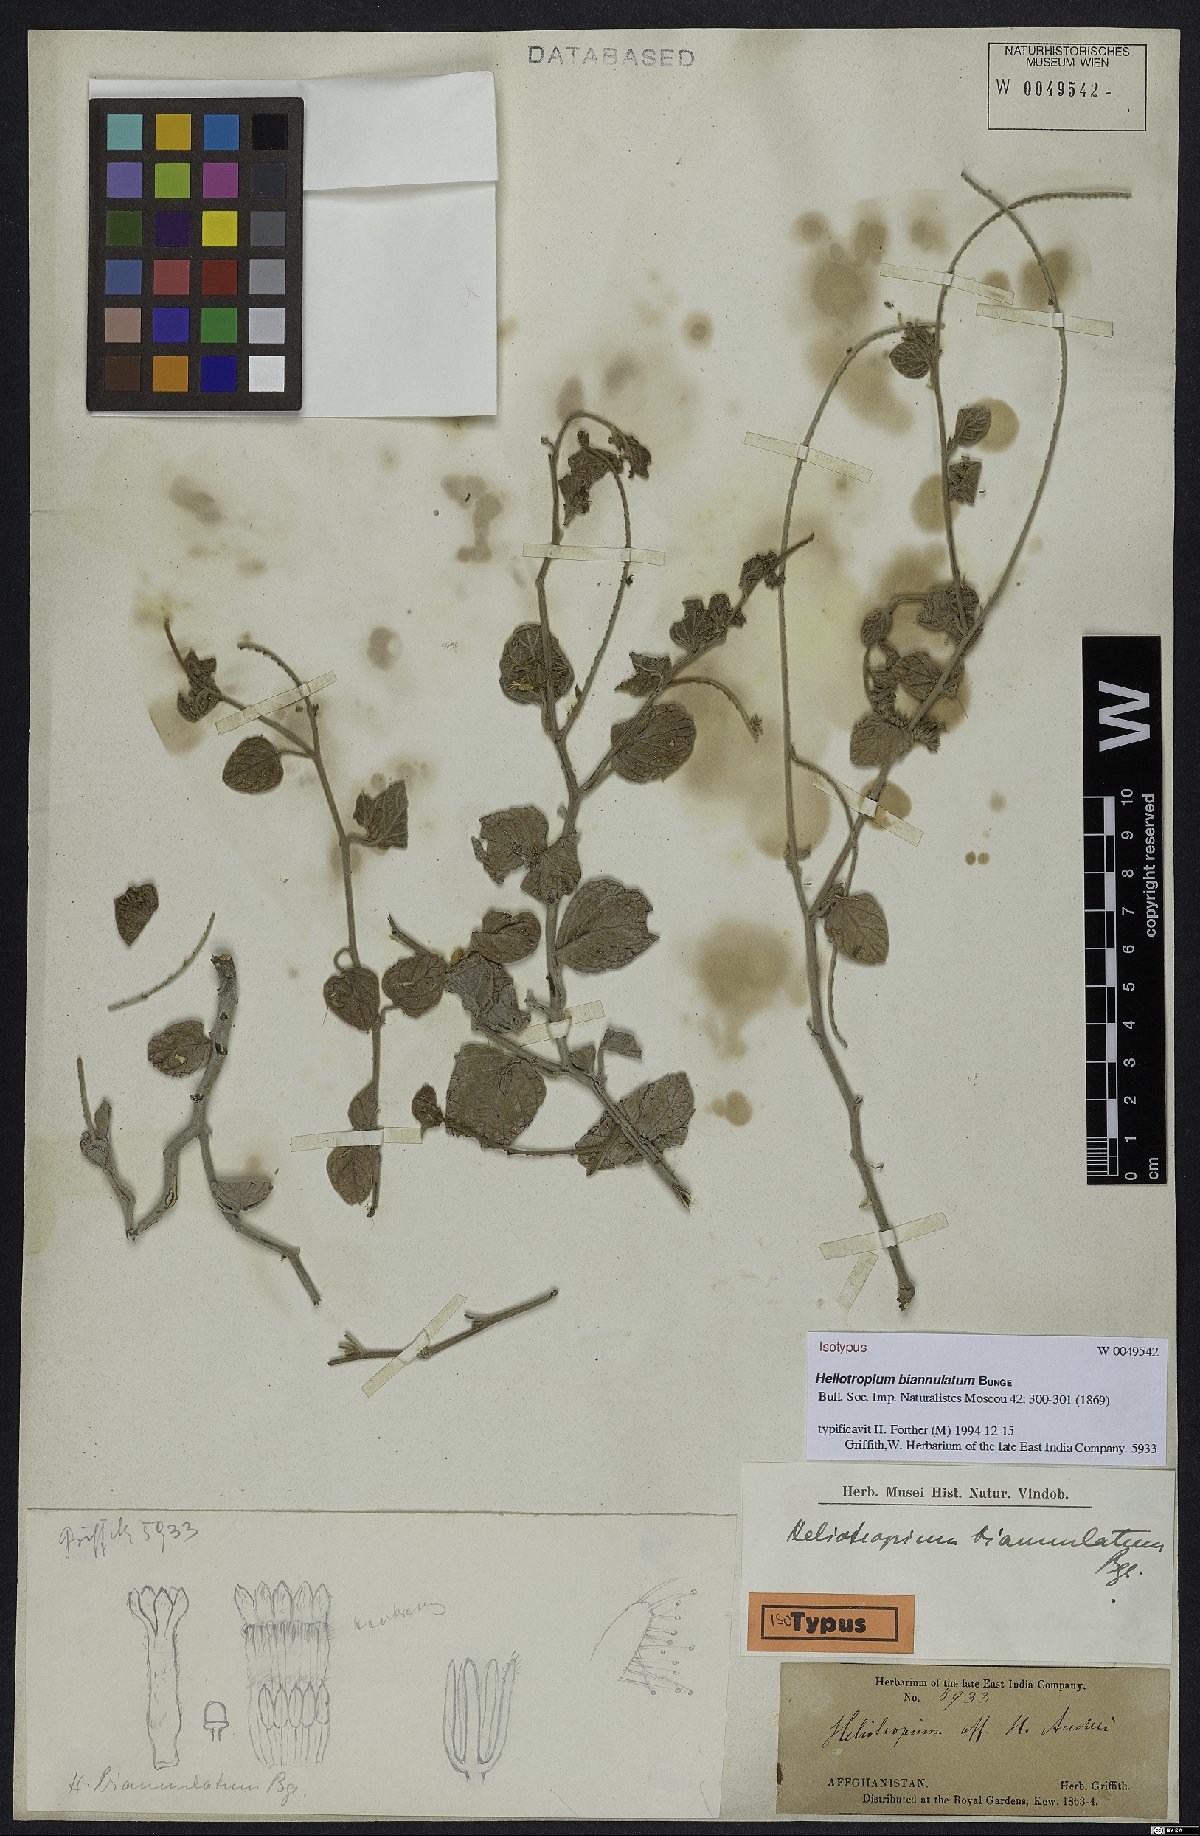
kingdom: Plantae
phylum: Tracheophyta
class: Magnoliopsida
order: Boraginales
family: Heliotropiaceae
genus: Heliotropium
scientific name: Heliotropium biannulatum
